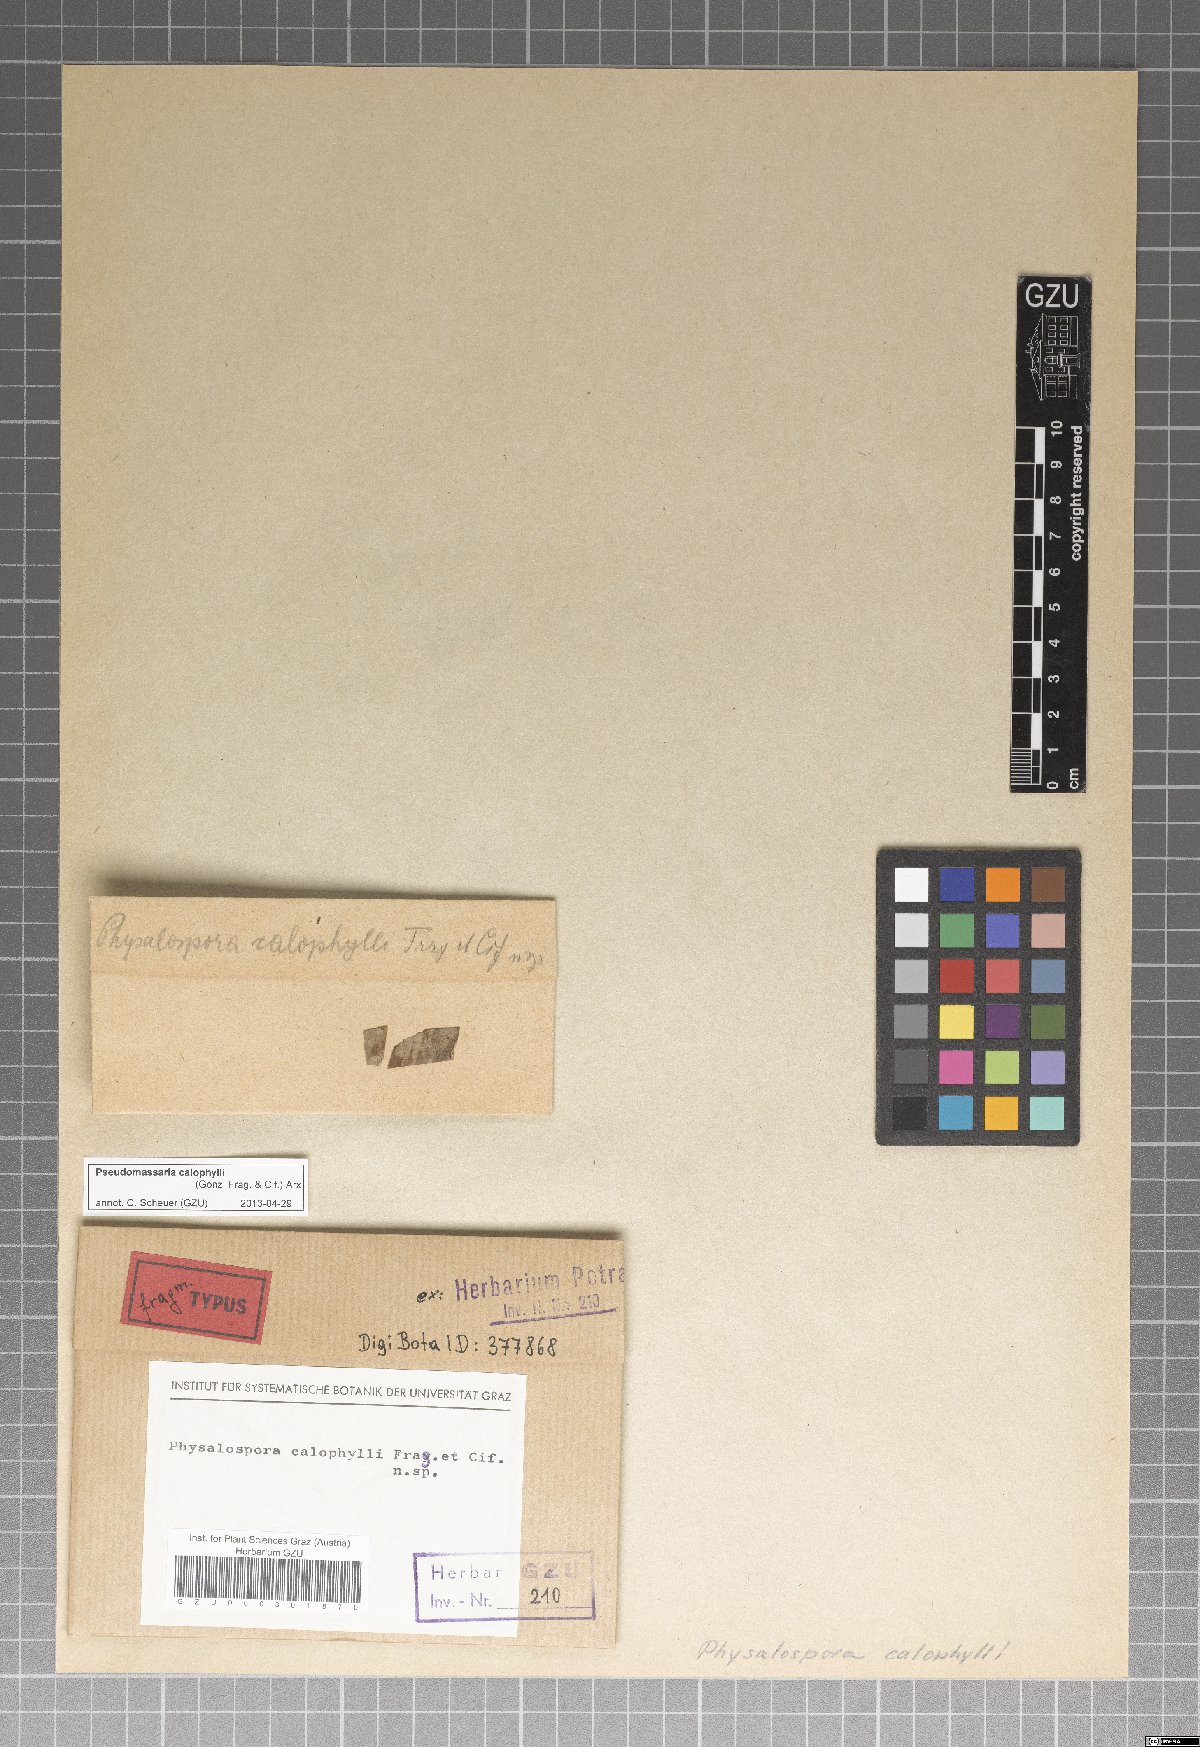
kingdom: Fungi
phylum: Ascomycota
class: Sordariomycetes
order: Xylariales
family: Pseudomassariaceae
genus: Pseudomassaria
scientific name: Pseudomassaria calophylli
